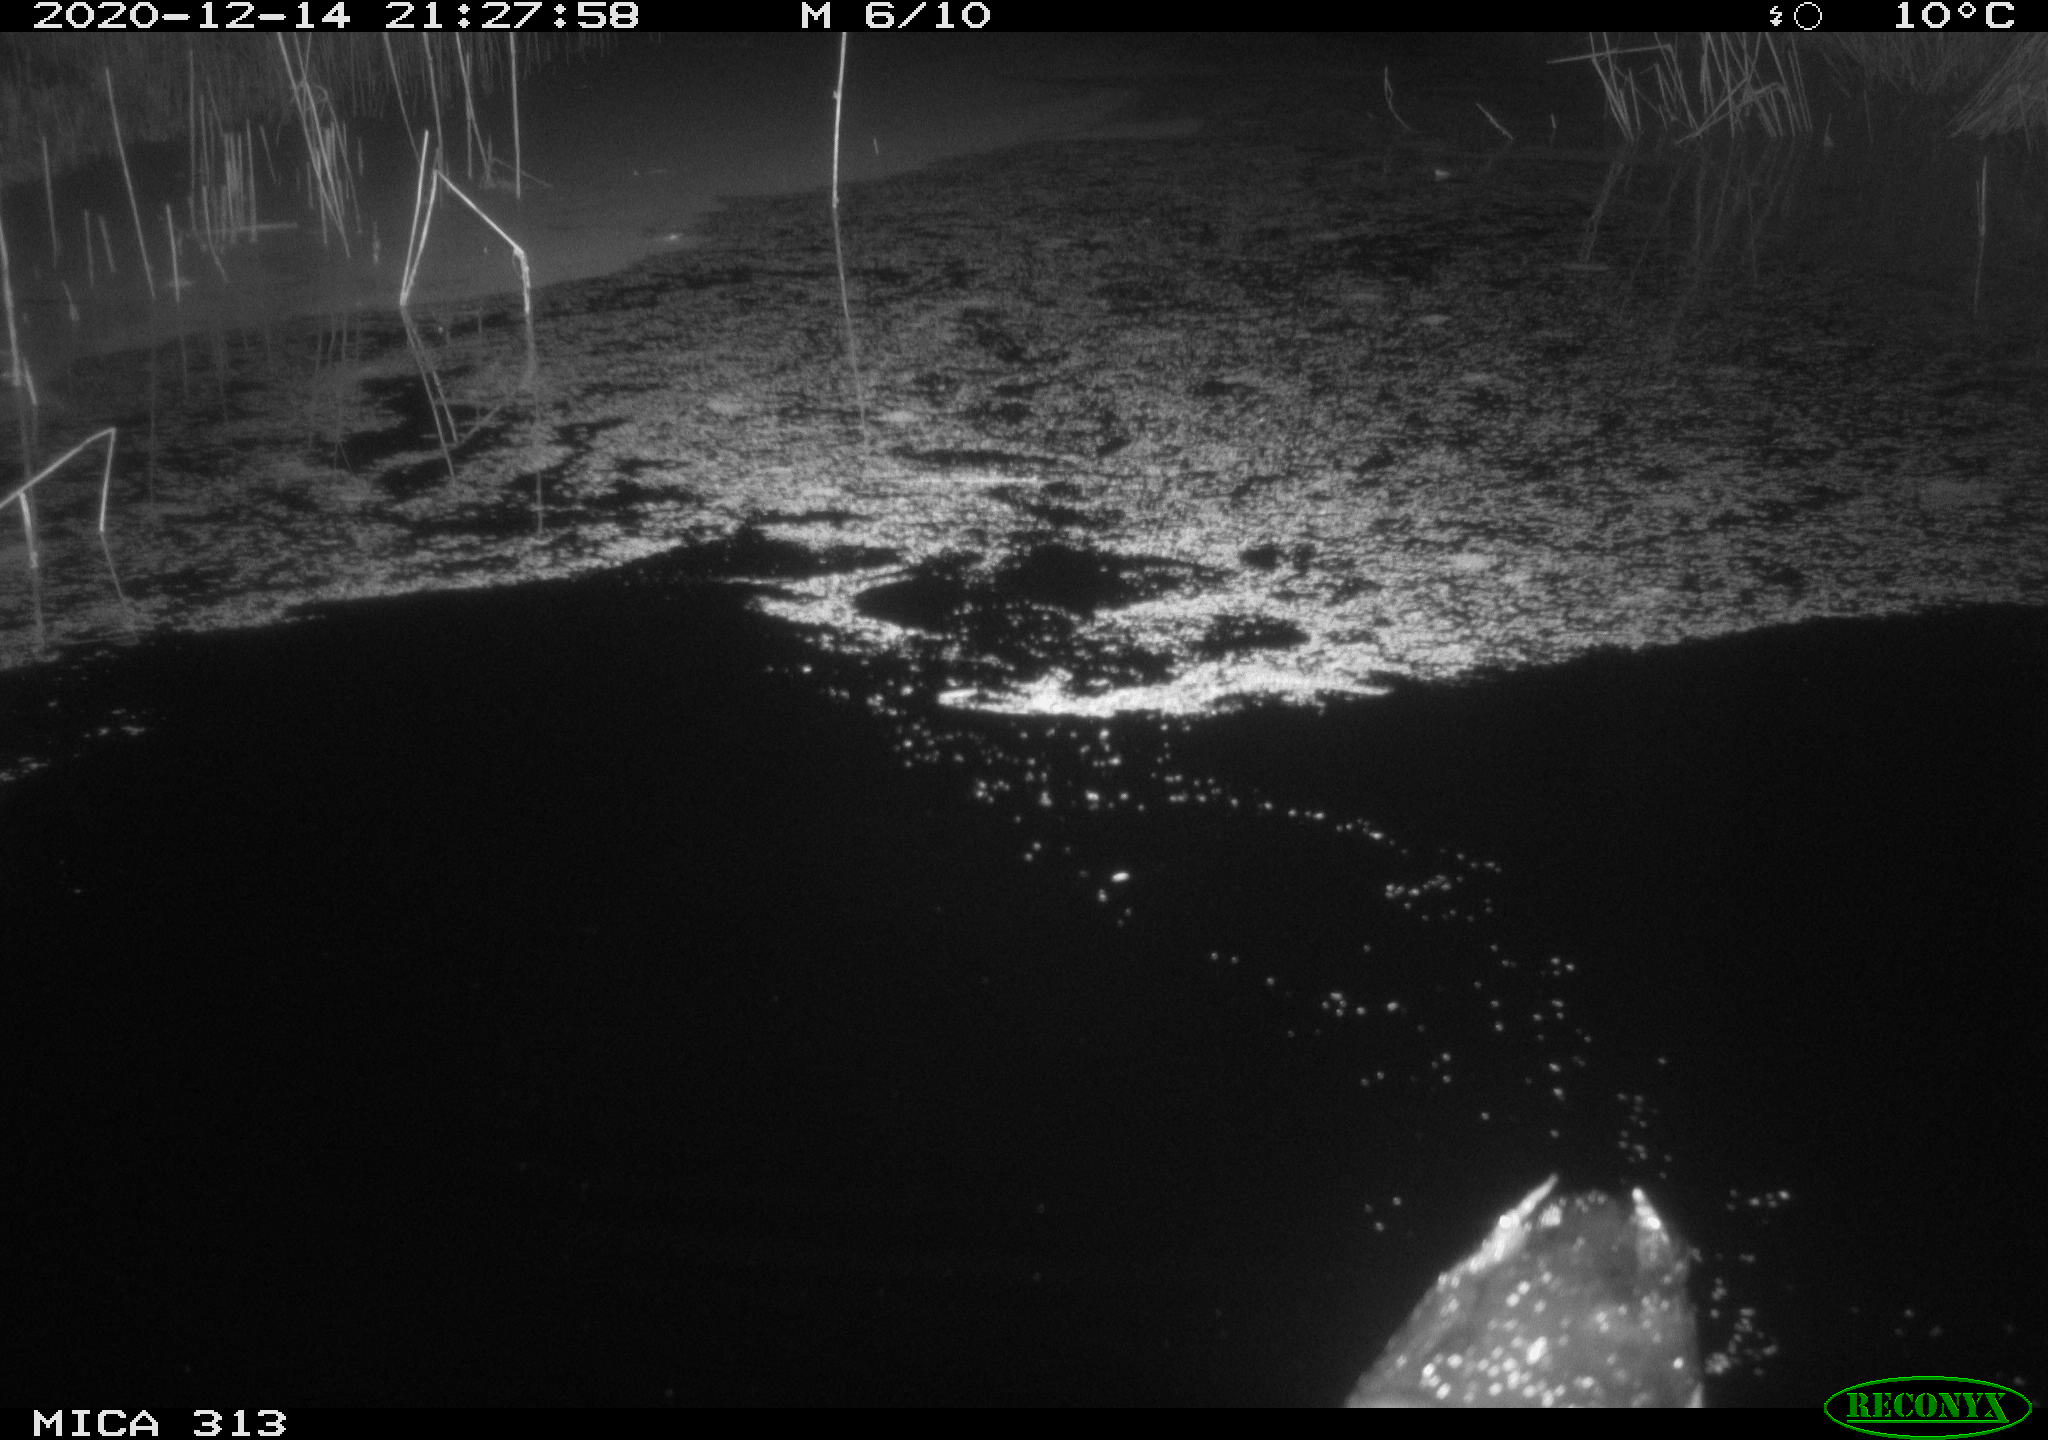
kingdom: Animalia
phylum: Chordata
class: Aves
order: Gruiformes
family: Rallidae
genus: Gallinula
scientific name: Gallinula chloropus
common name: Common moorhen
